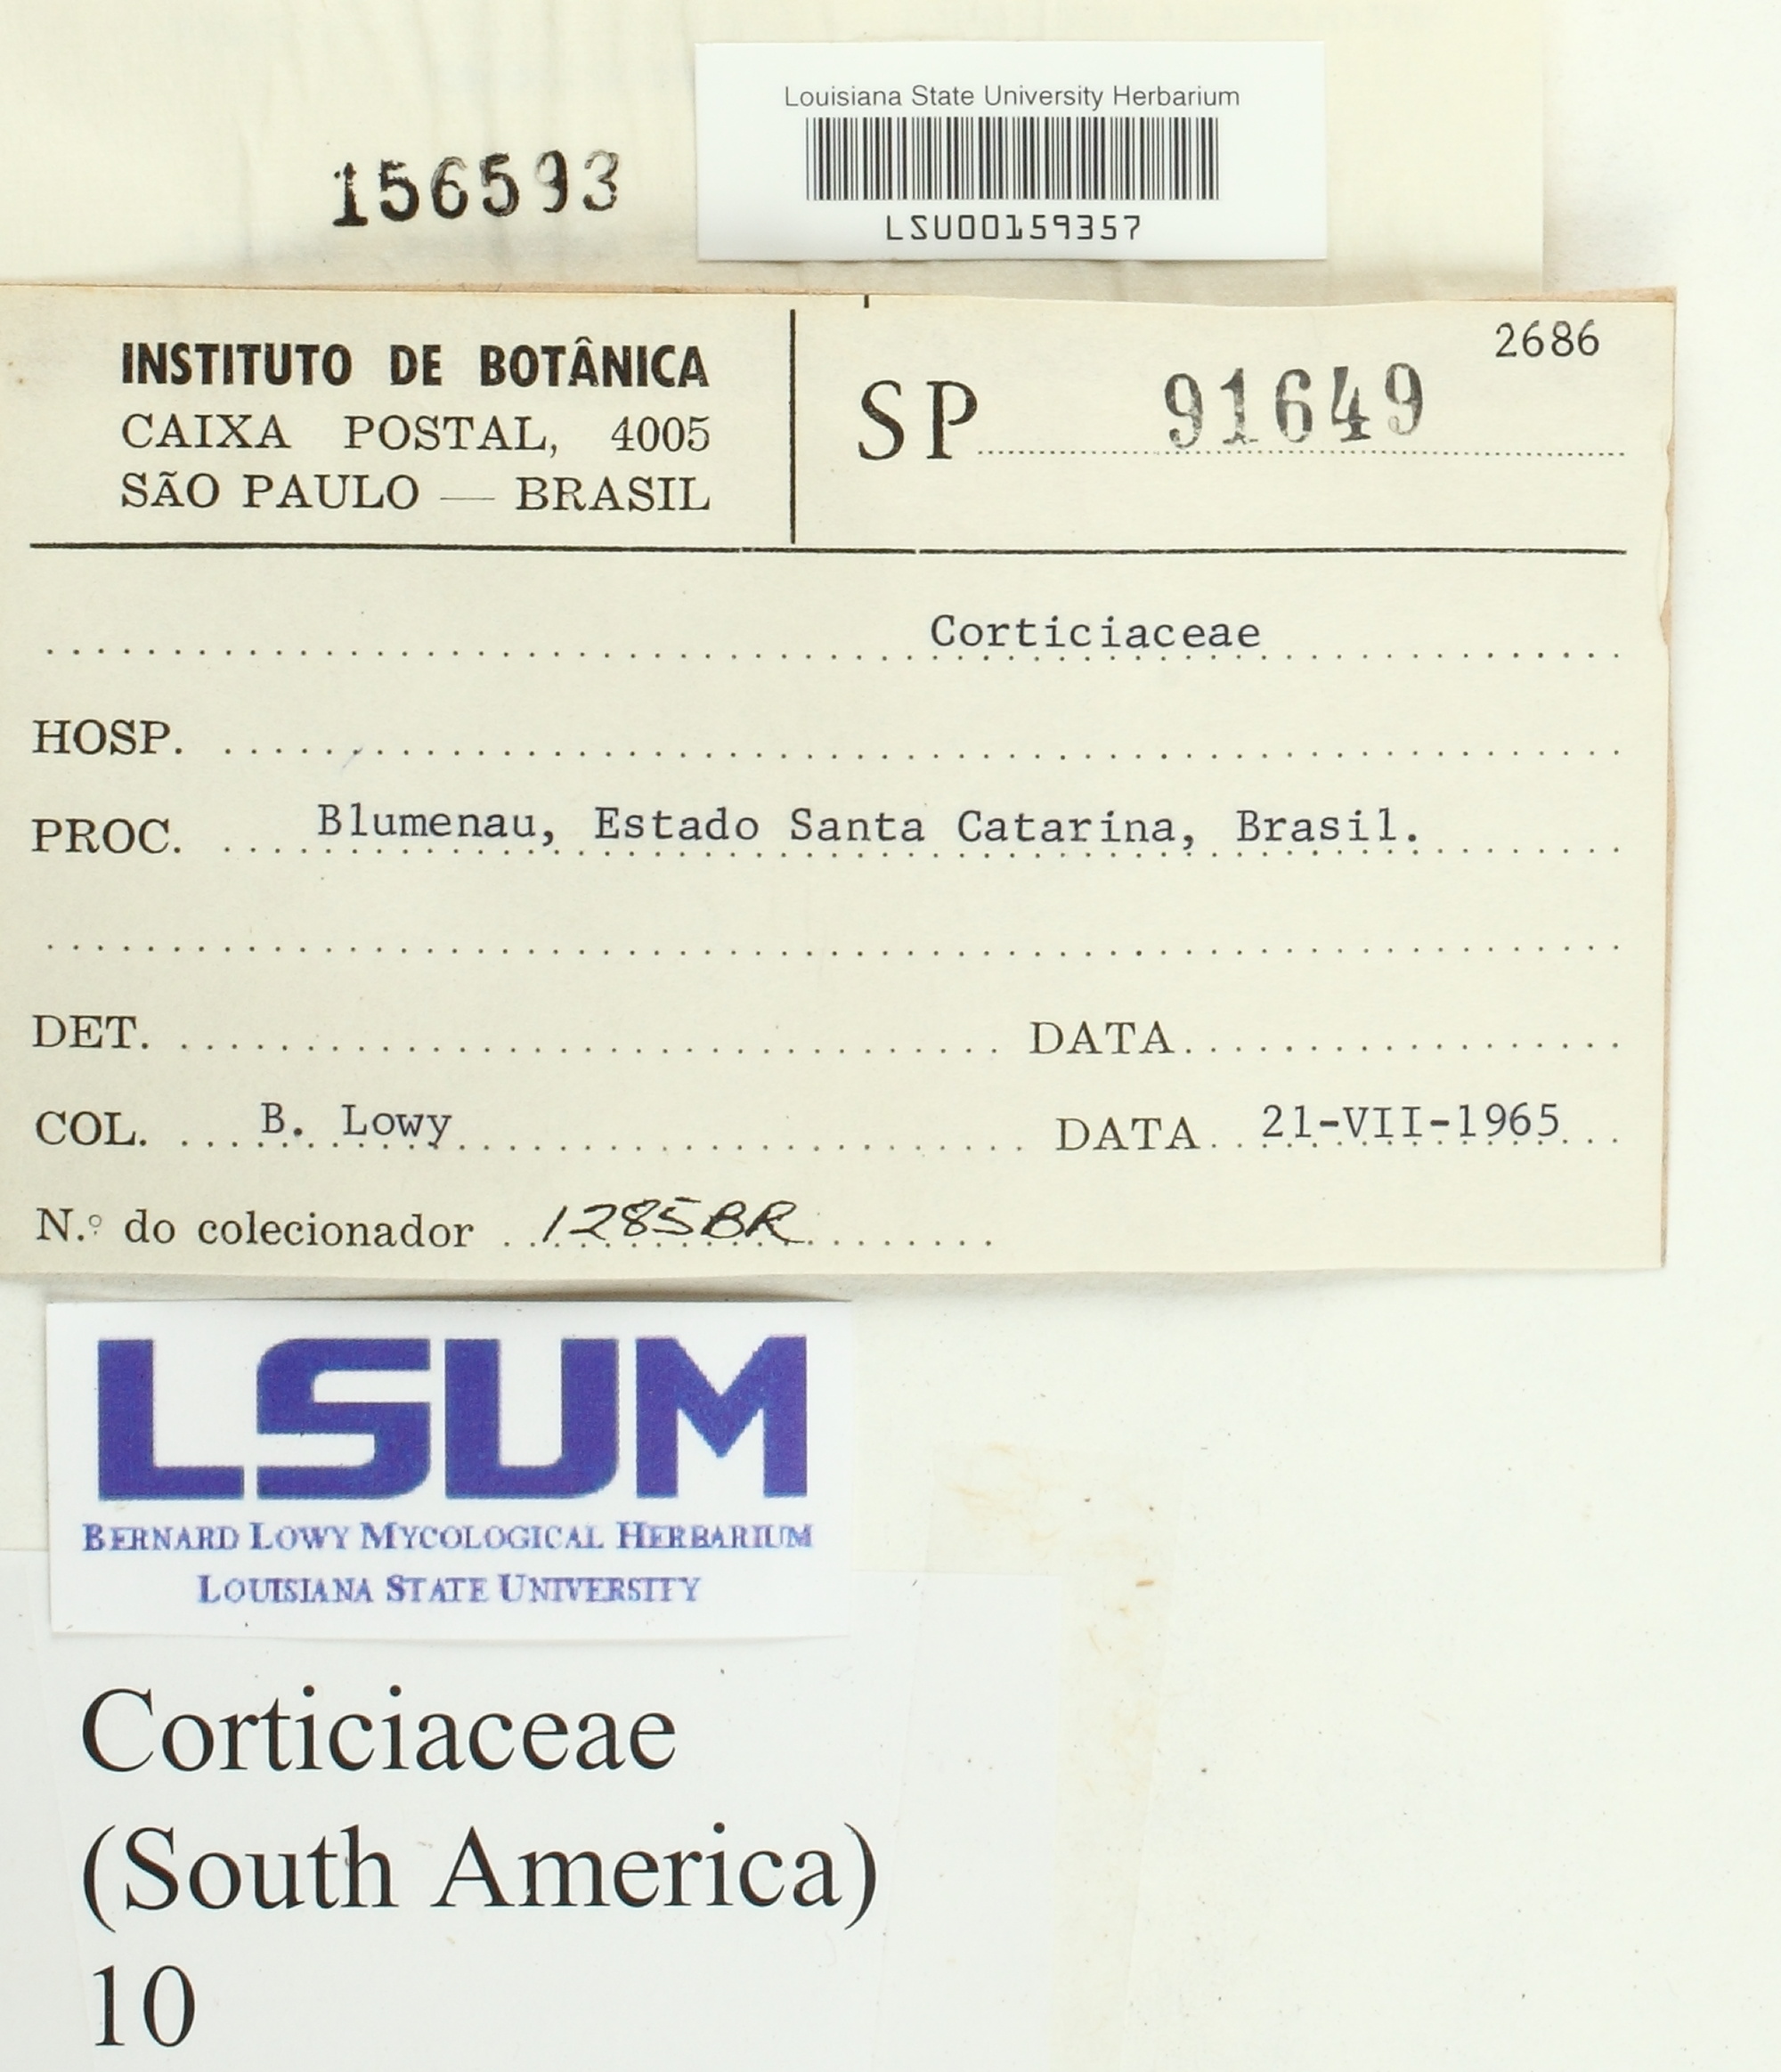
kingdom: Fungi
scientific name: Fungi
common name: Fungi
